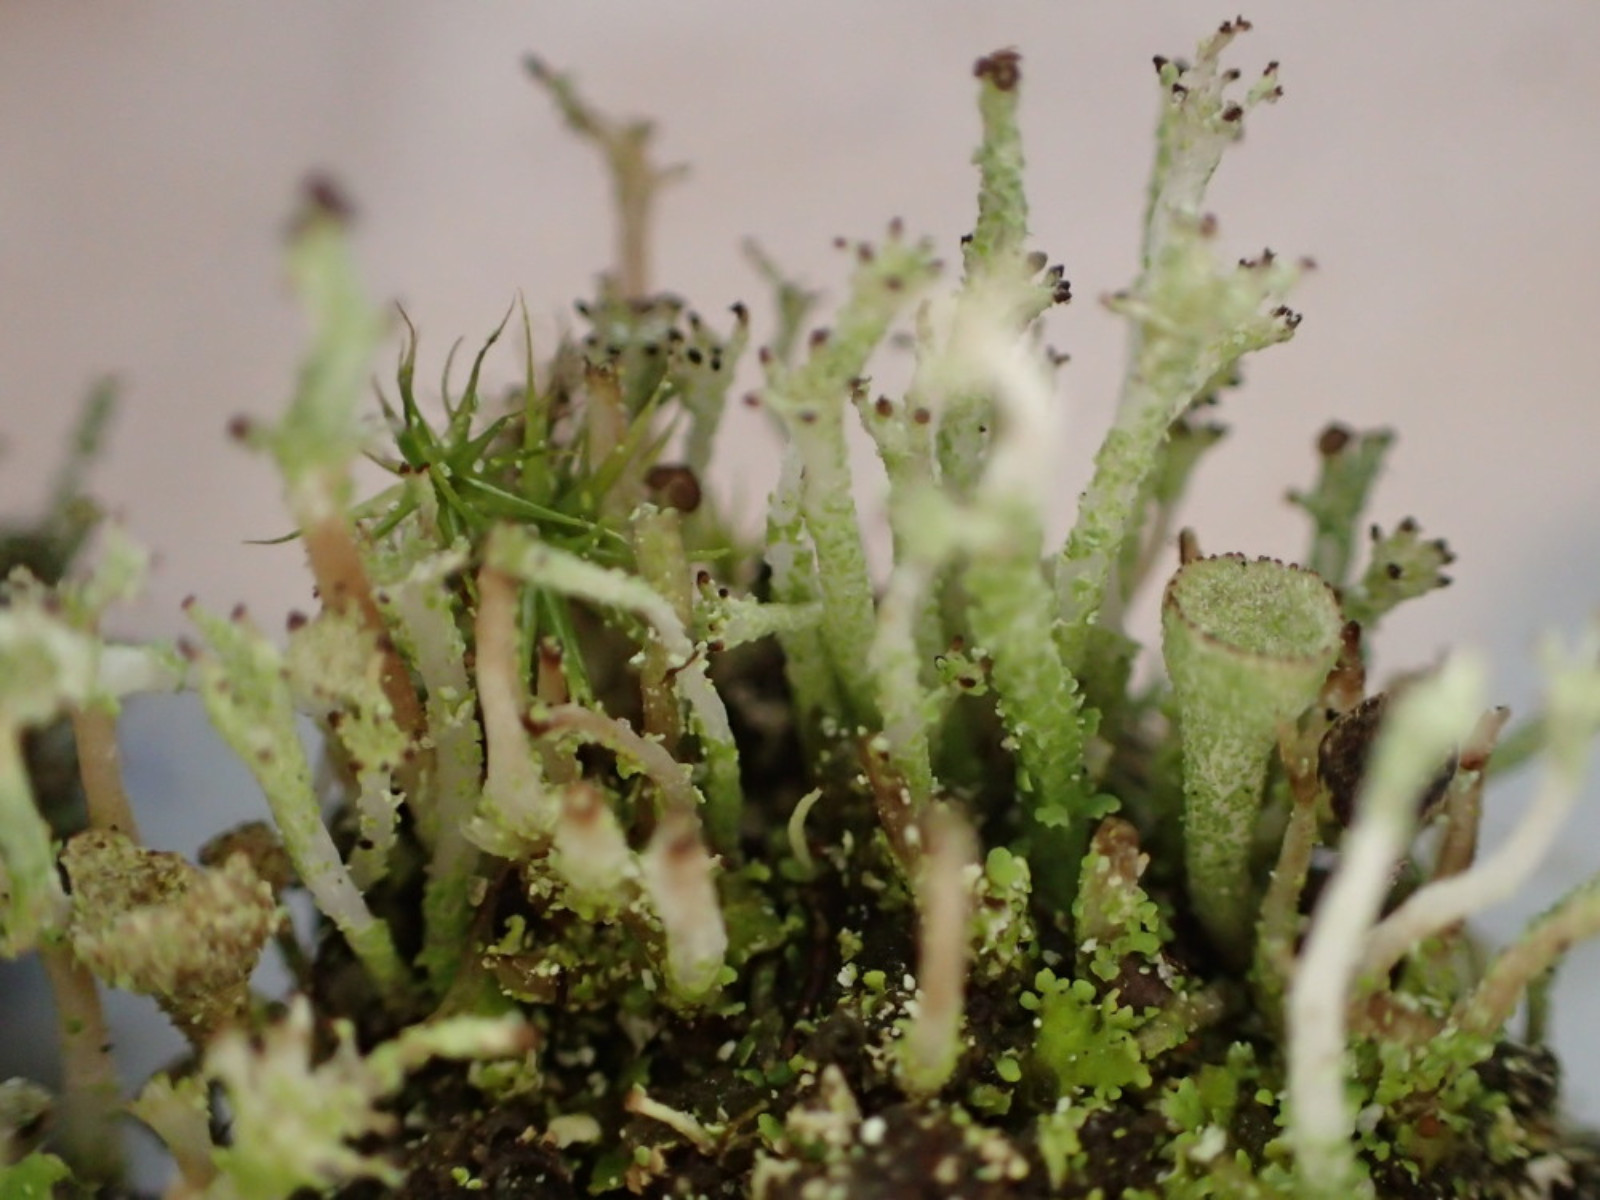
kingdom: Fungi
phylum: Ascomycota
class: Lecanoromycetes
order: Lecanorales
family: Cladoniaceae
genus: Cladonia
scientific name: Cladonia ramulosa
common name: kliddet bægerlav
